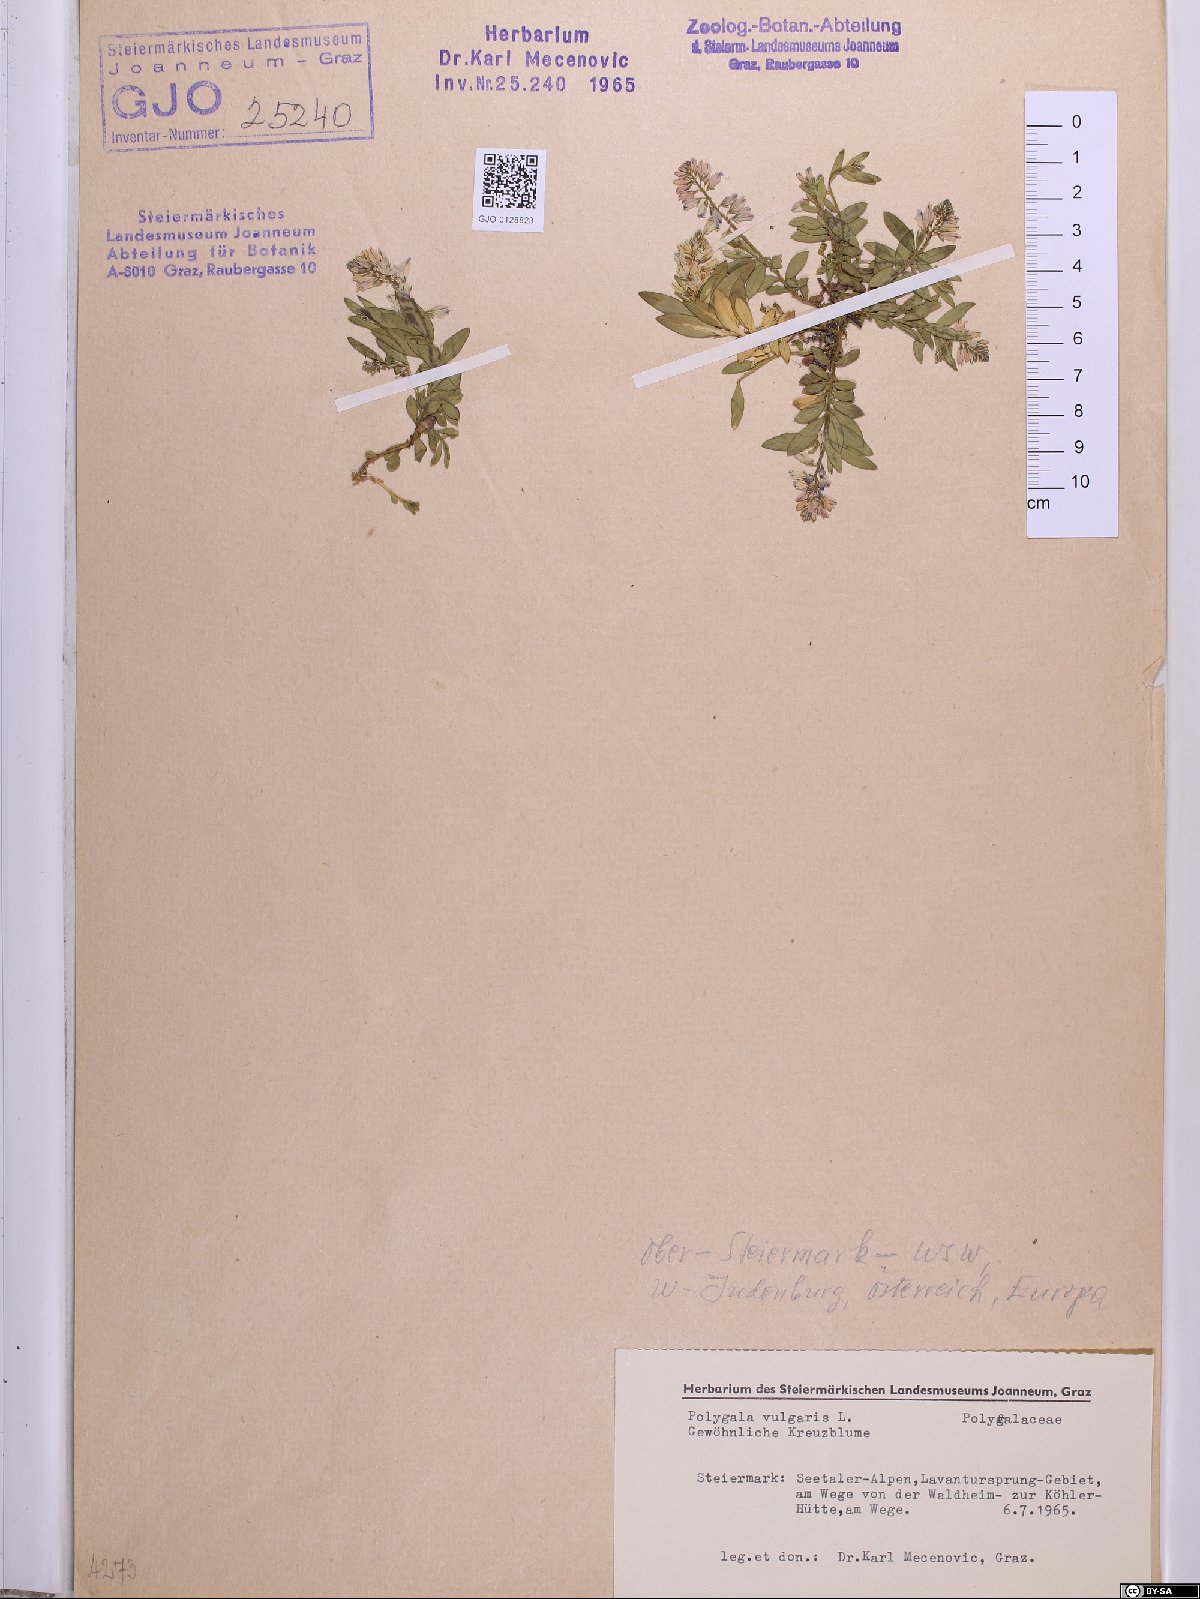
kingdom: Plantae
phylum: Tracheophyta
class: Magnoliopsida
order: Fabales
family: Polygalaceae
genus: Polygala
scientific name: Polygala vulgaris
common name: Common milkwort
